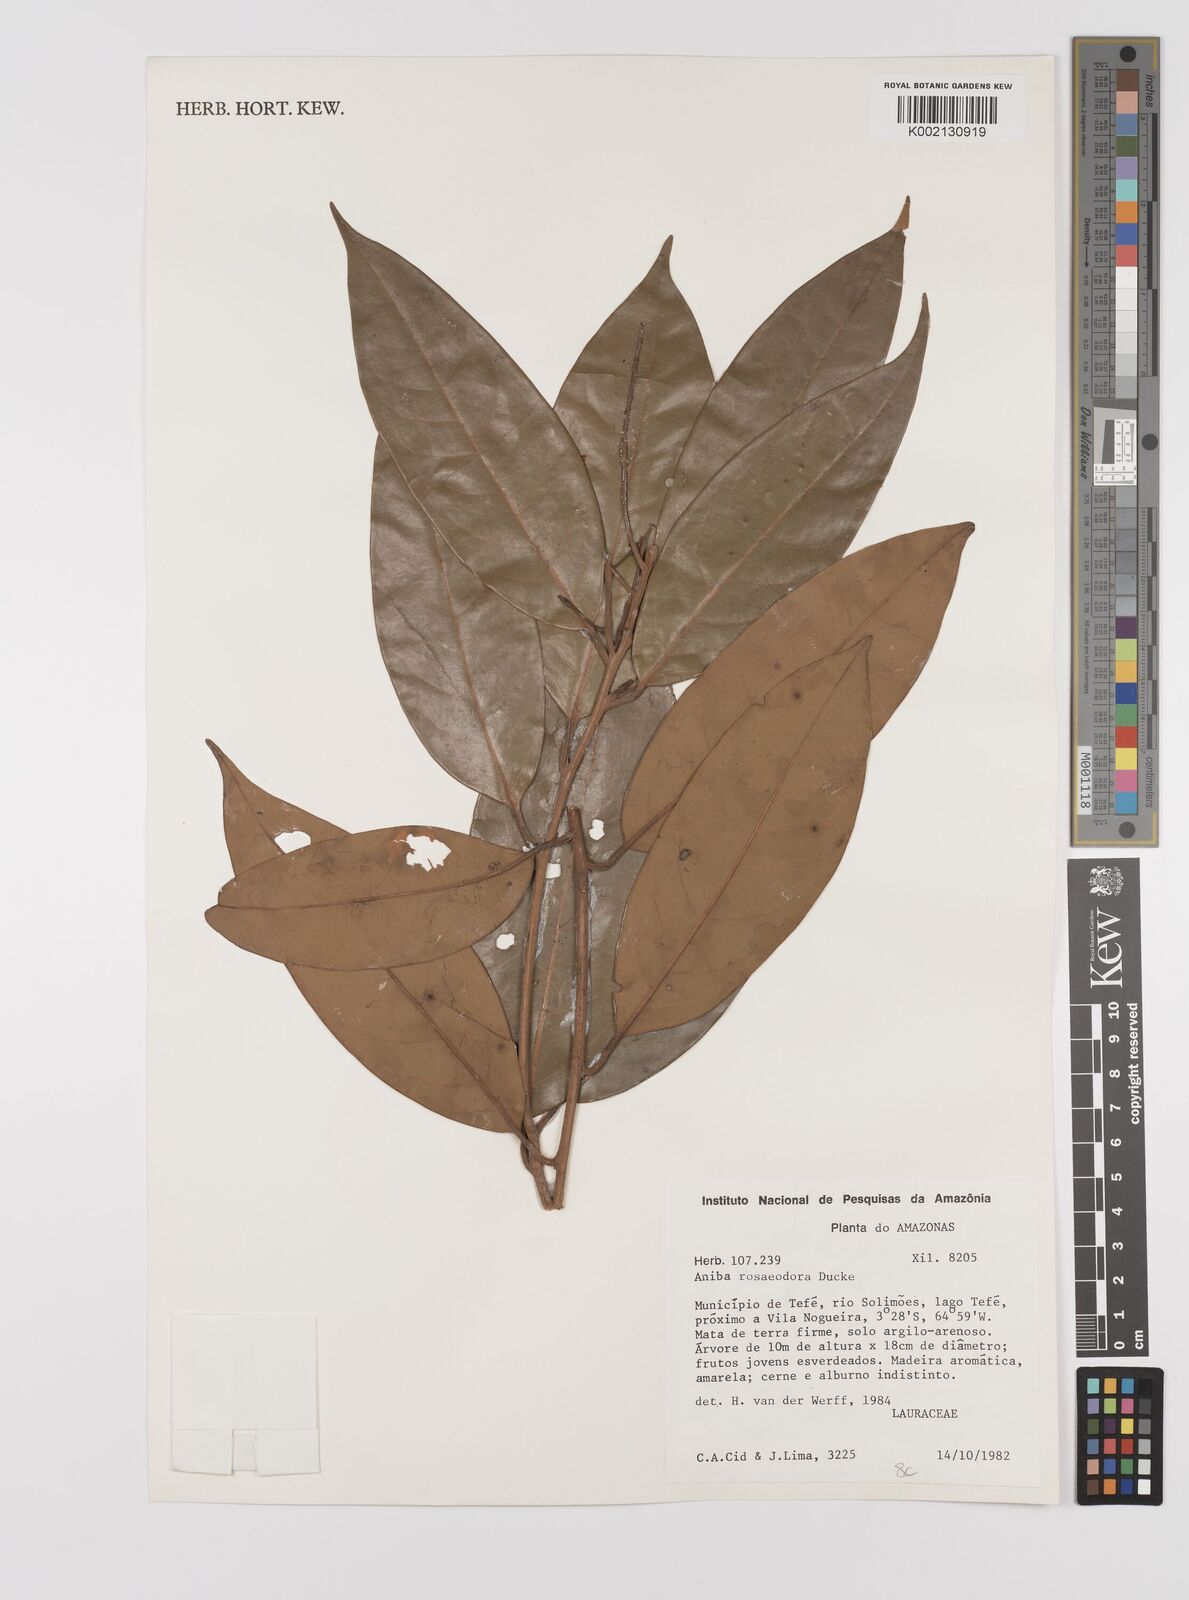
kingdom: Plantae
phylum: Tracheophyta
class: Magnoliopsida
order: Laurales
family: Lauraceae
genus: Aniba
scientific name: Aniba rosodora
